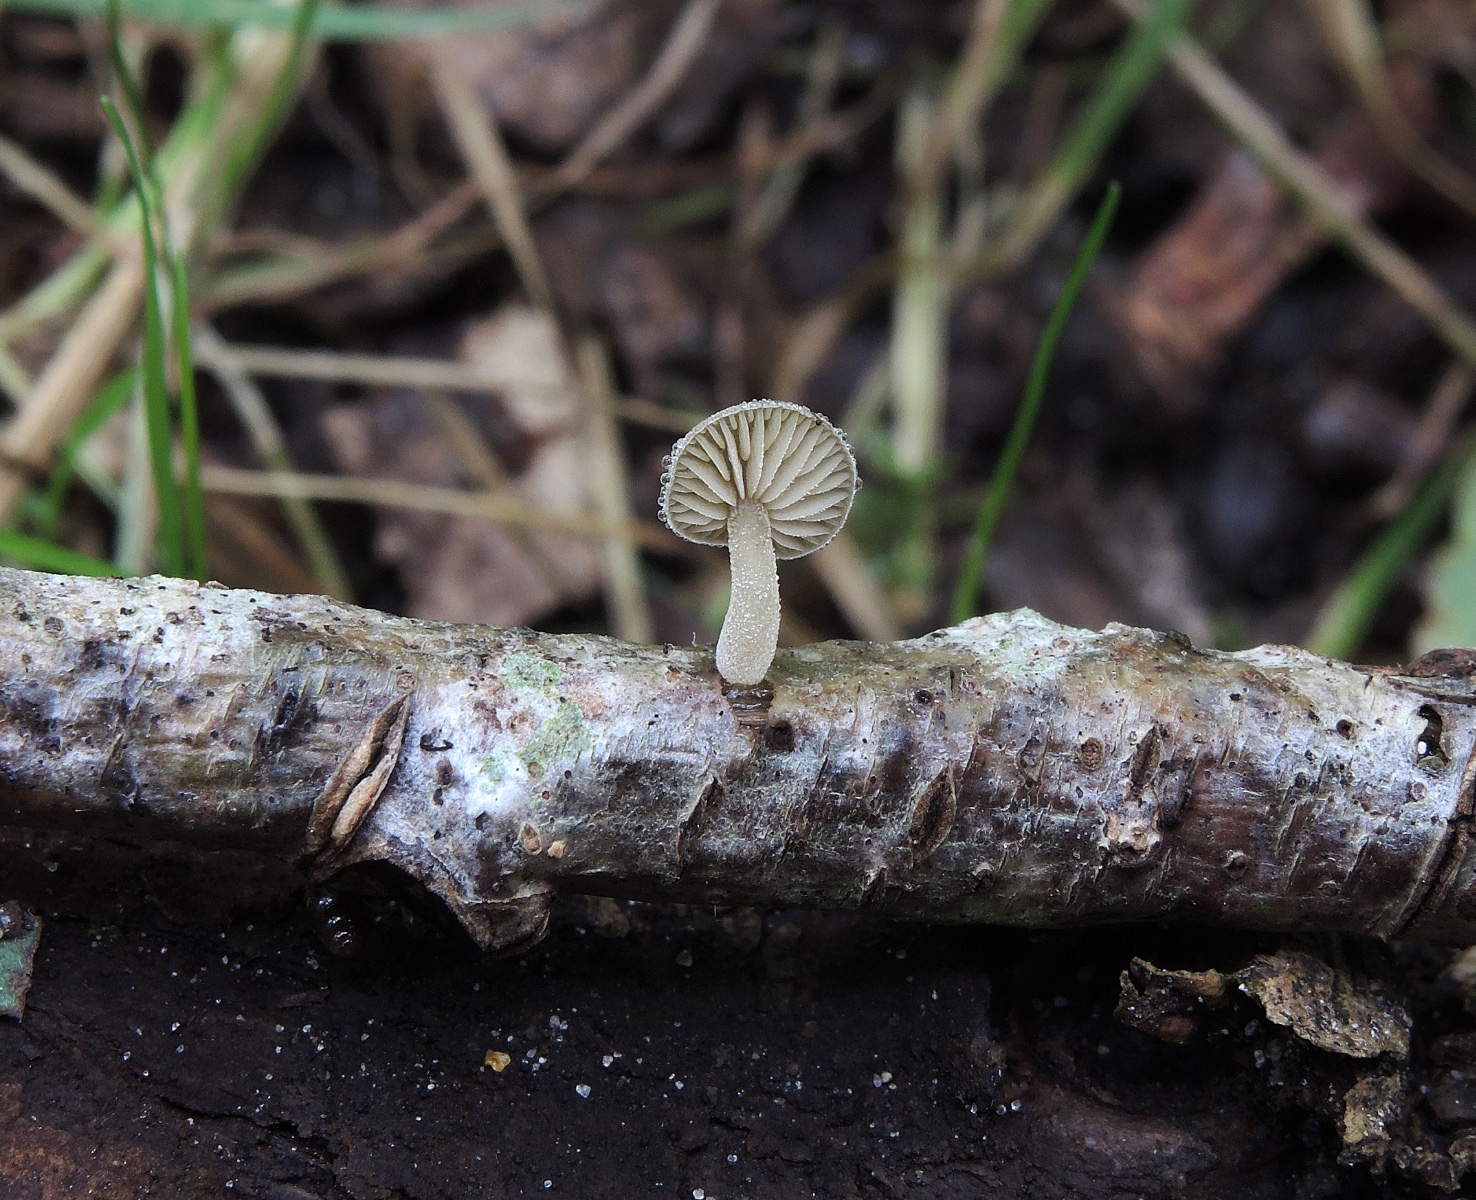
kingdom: Fungi
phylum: Basidiomycota
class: Agaricomycetes
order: Agaricales
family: Crepidotaceae
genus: Simocybe
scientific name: Simocybe haustellaris
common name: skæv skyggehat
